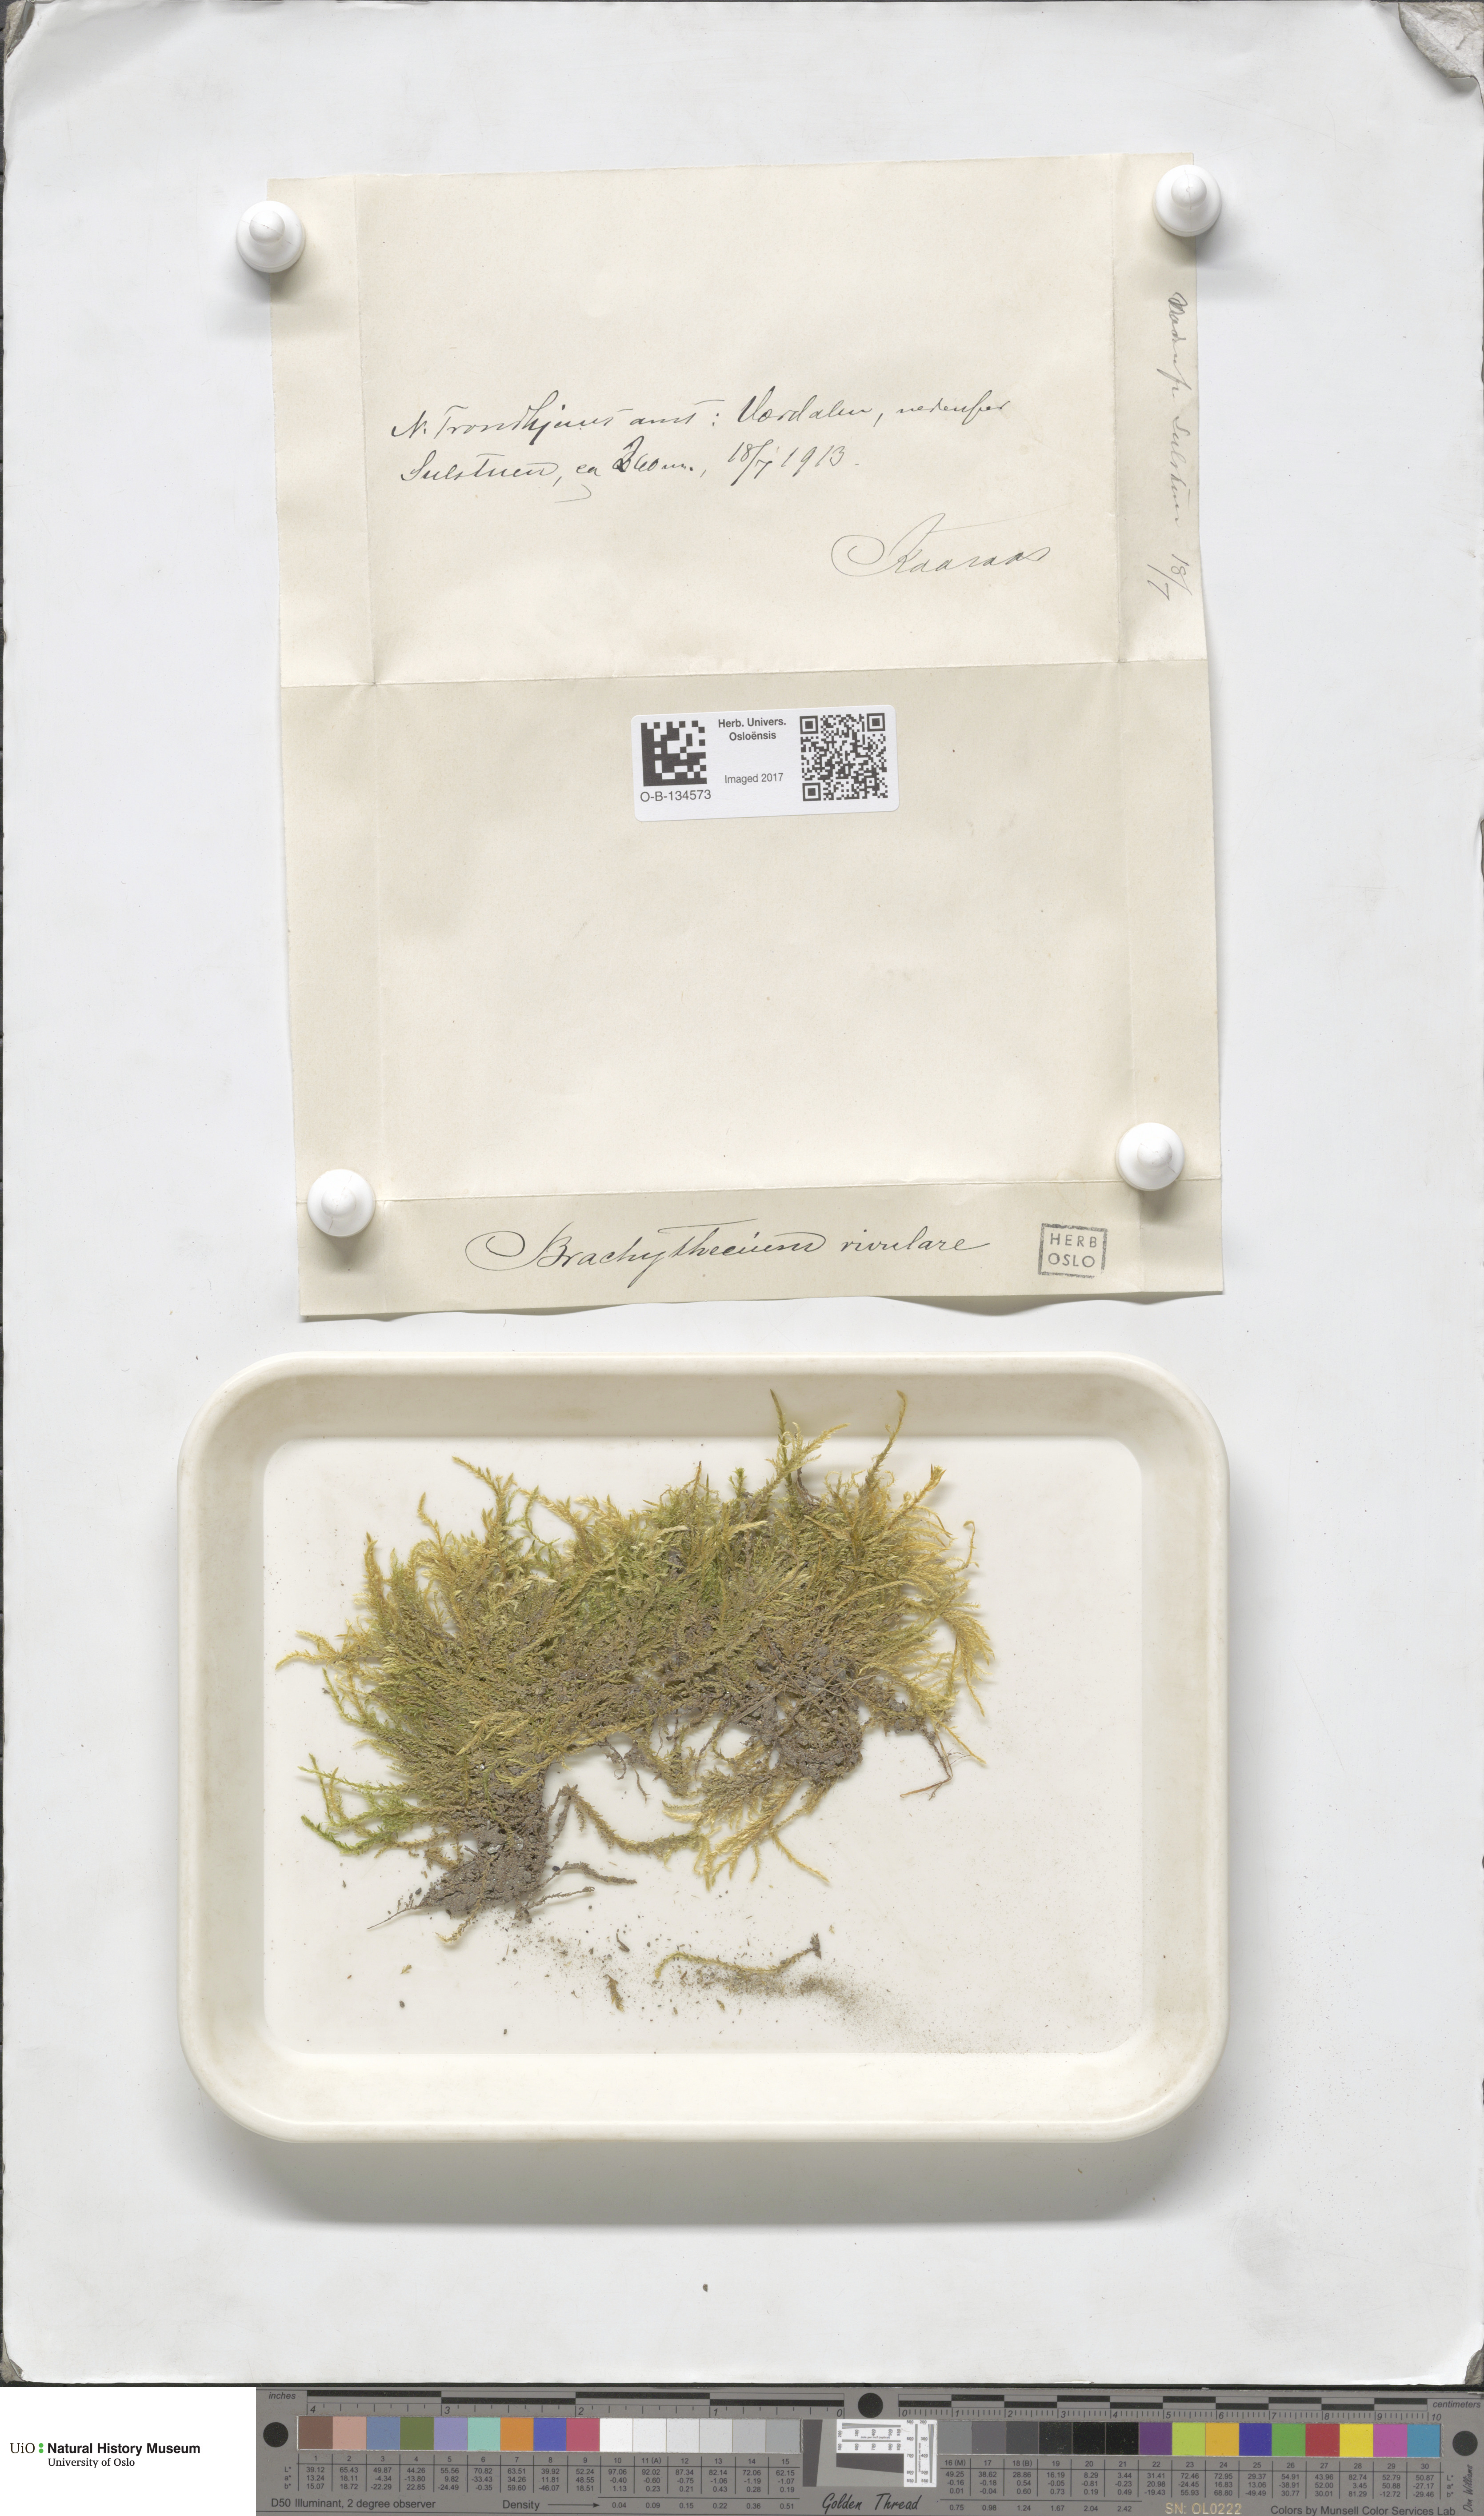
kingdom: Plantae
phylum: Bryophyta
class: Bryopsida
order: Hypnales
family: Brachytheciaceae
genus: Brachythecium
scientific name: Brachythecium rivulare
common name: River ragged moss
